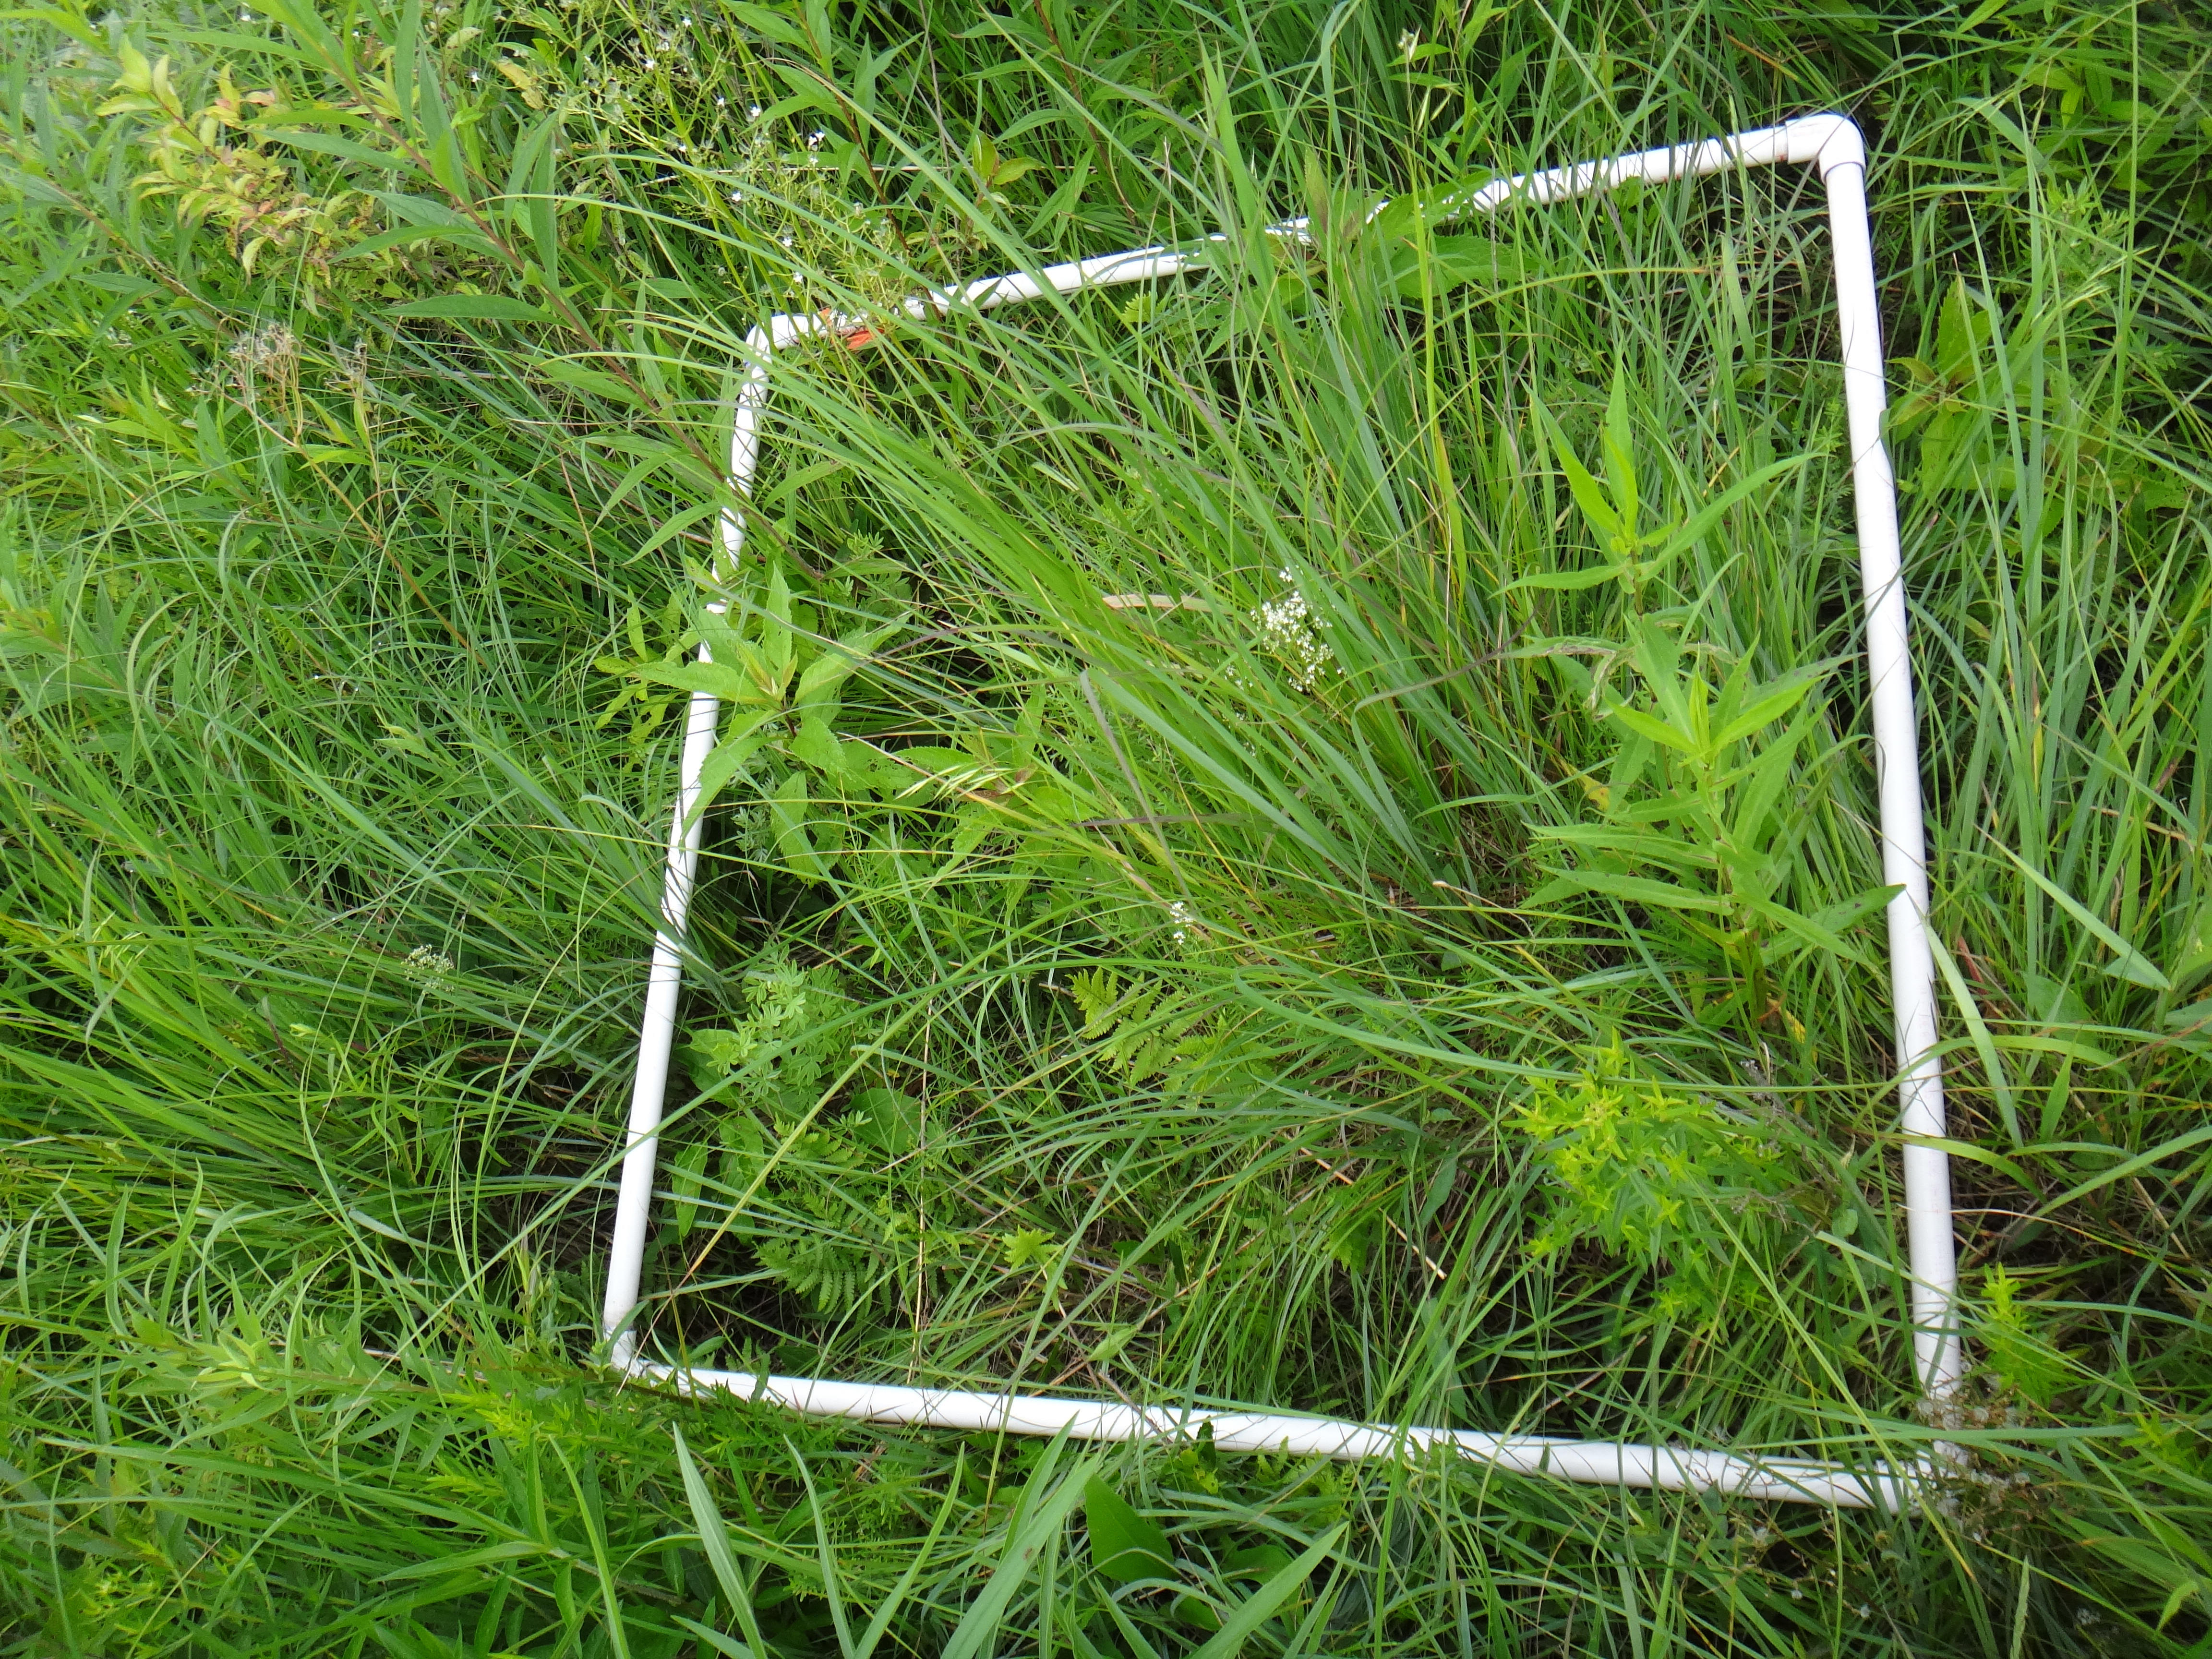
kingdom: Plantae
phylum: Tracheophyta
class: Magnoliopsida
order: Asterales
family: Asteraceae
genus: Symphyotrichum
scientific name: Symphyotrichum firmum
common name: Shining aster
